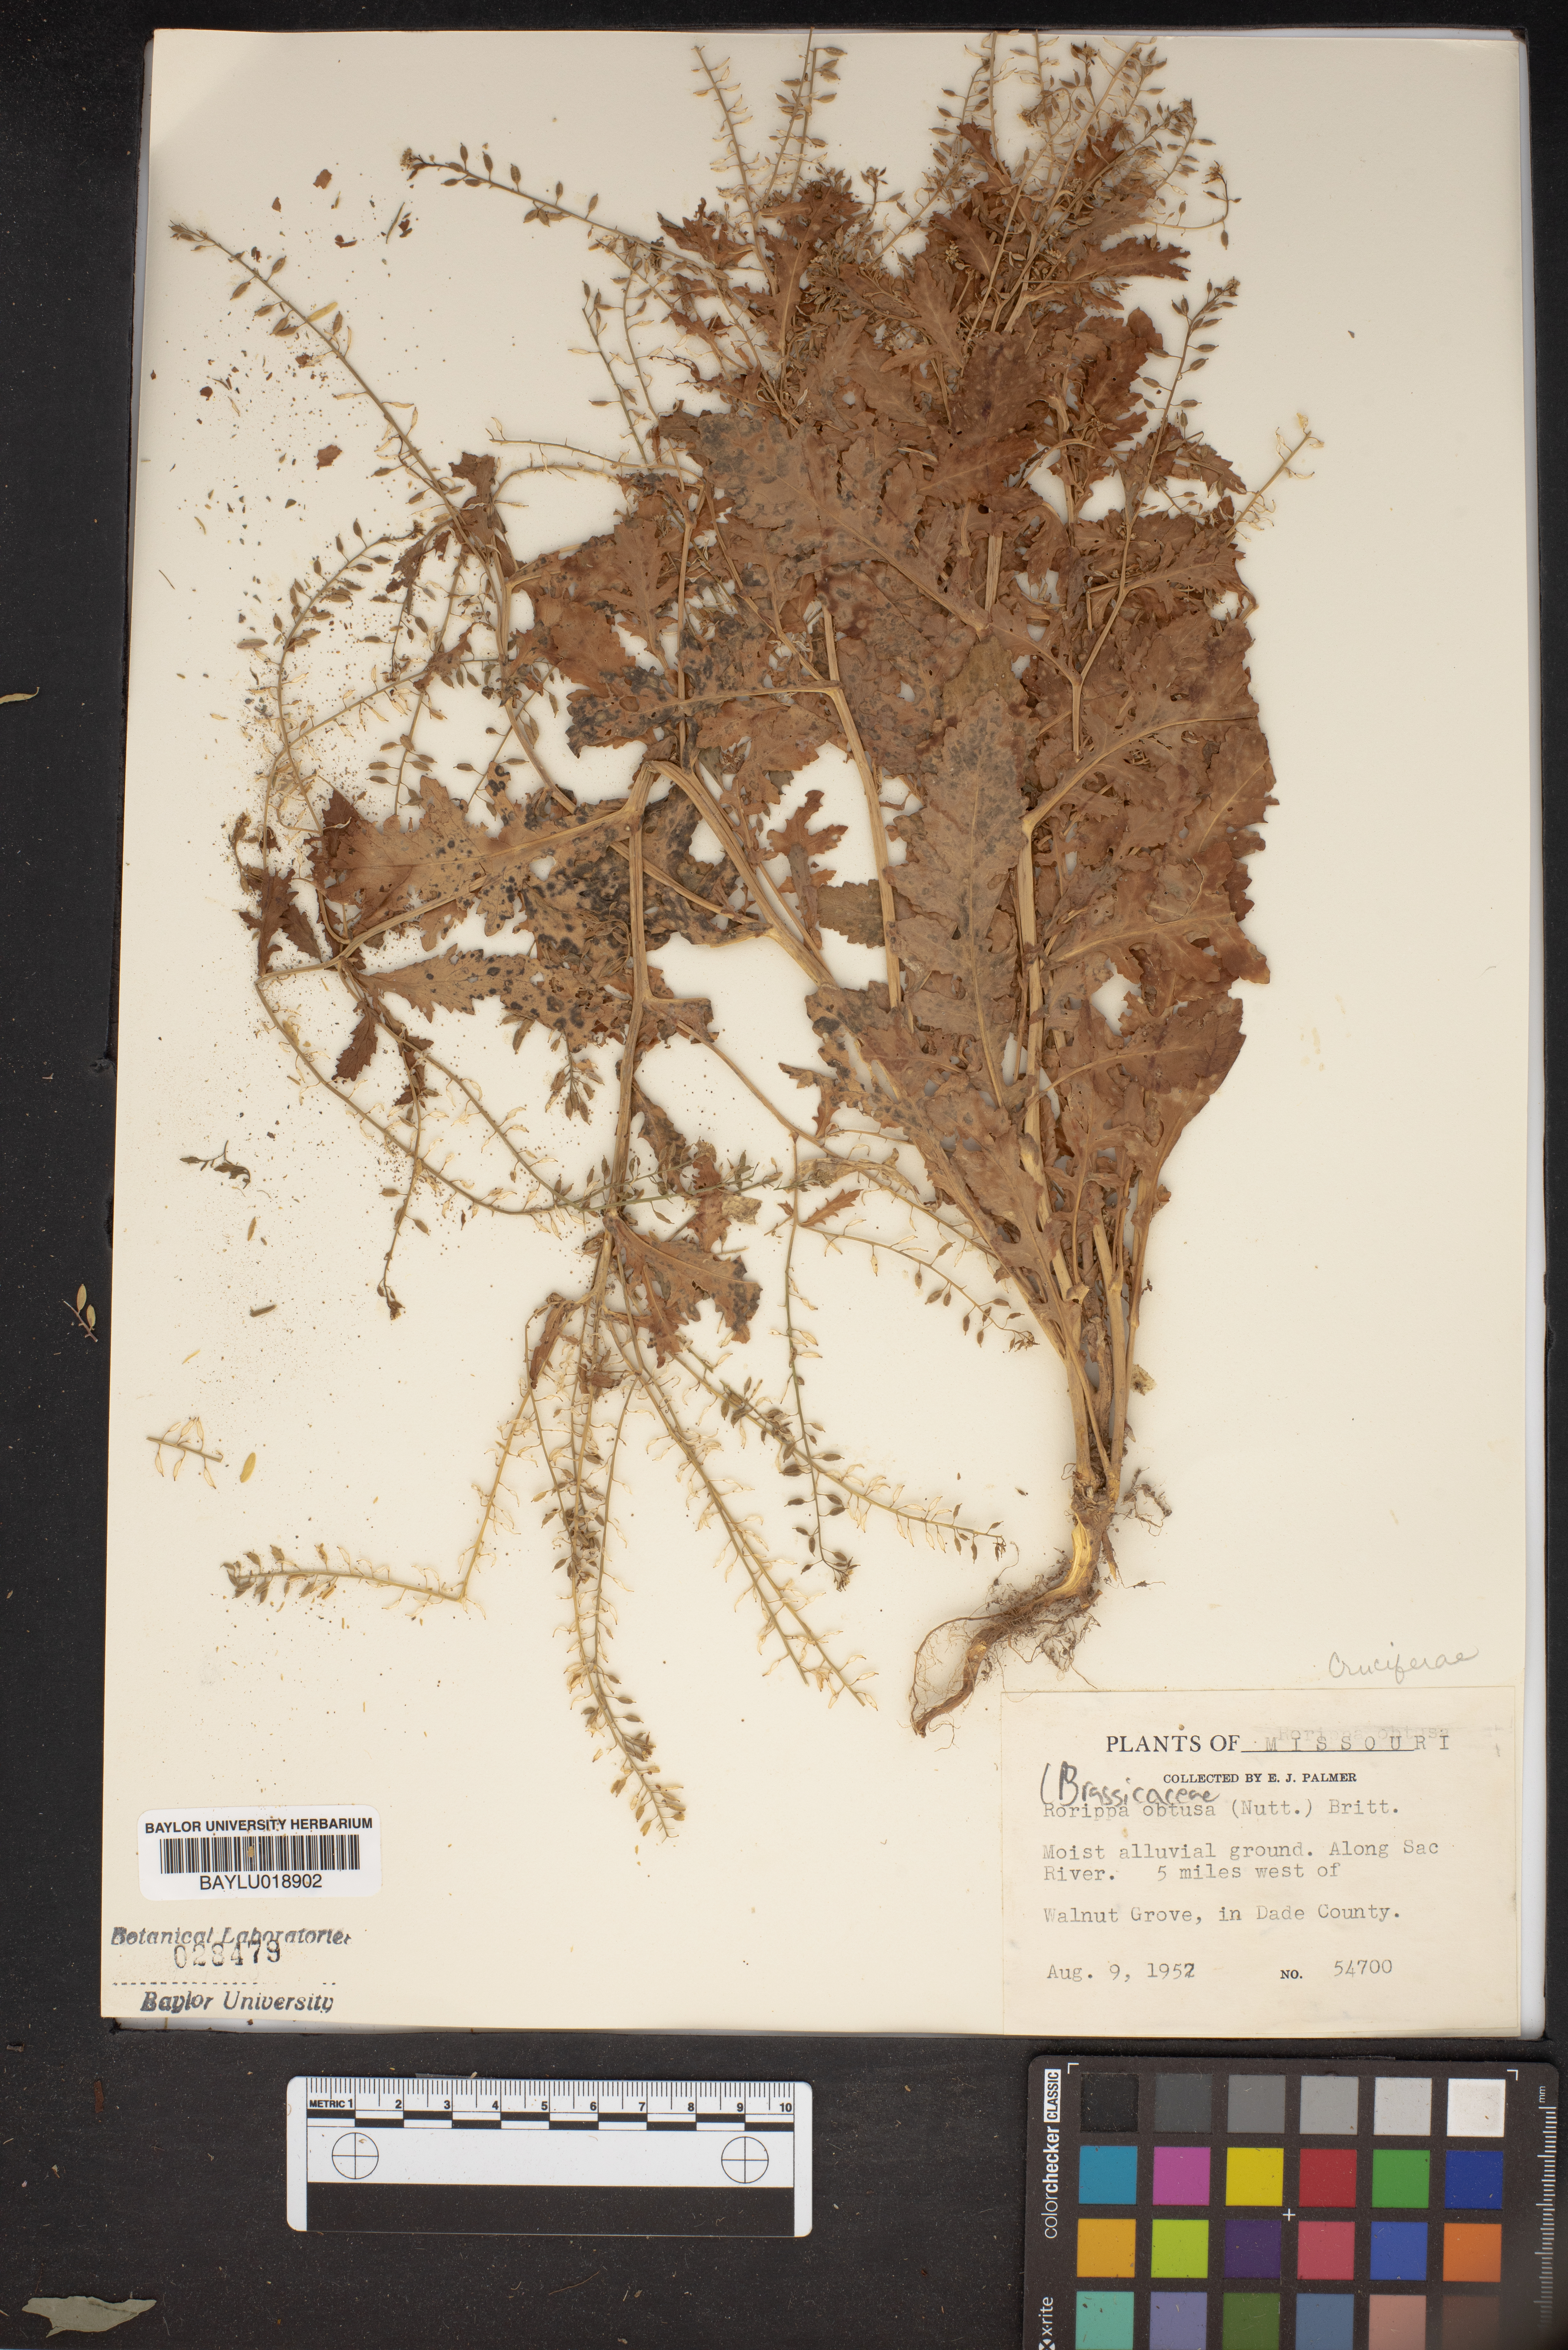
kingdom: Plantae
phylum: Tracheophyta
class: Magnoliopsida
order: Brassicales
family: Brassicaceae
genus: Rorippa
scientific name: Rorippa teres
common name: Southern marsh yellowcress
